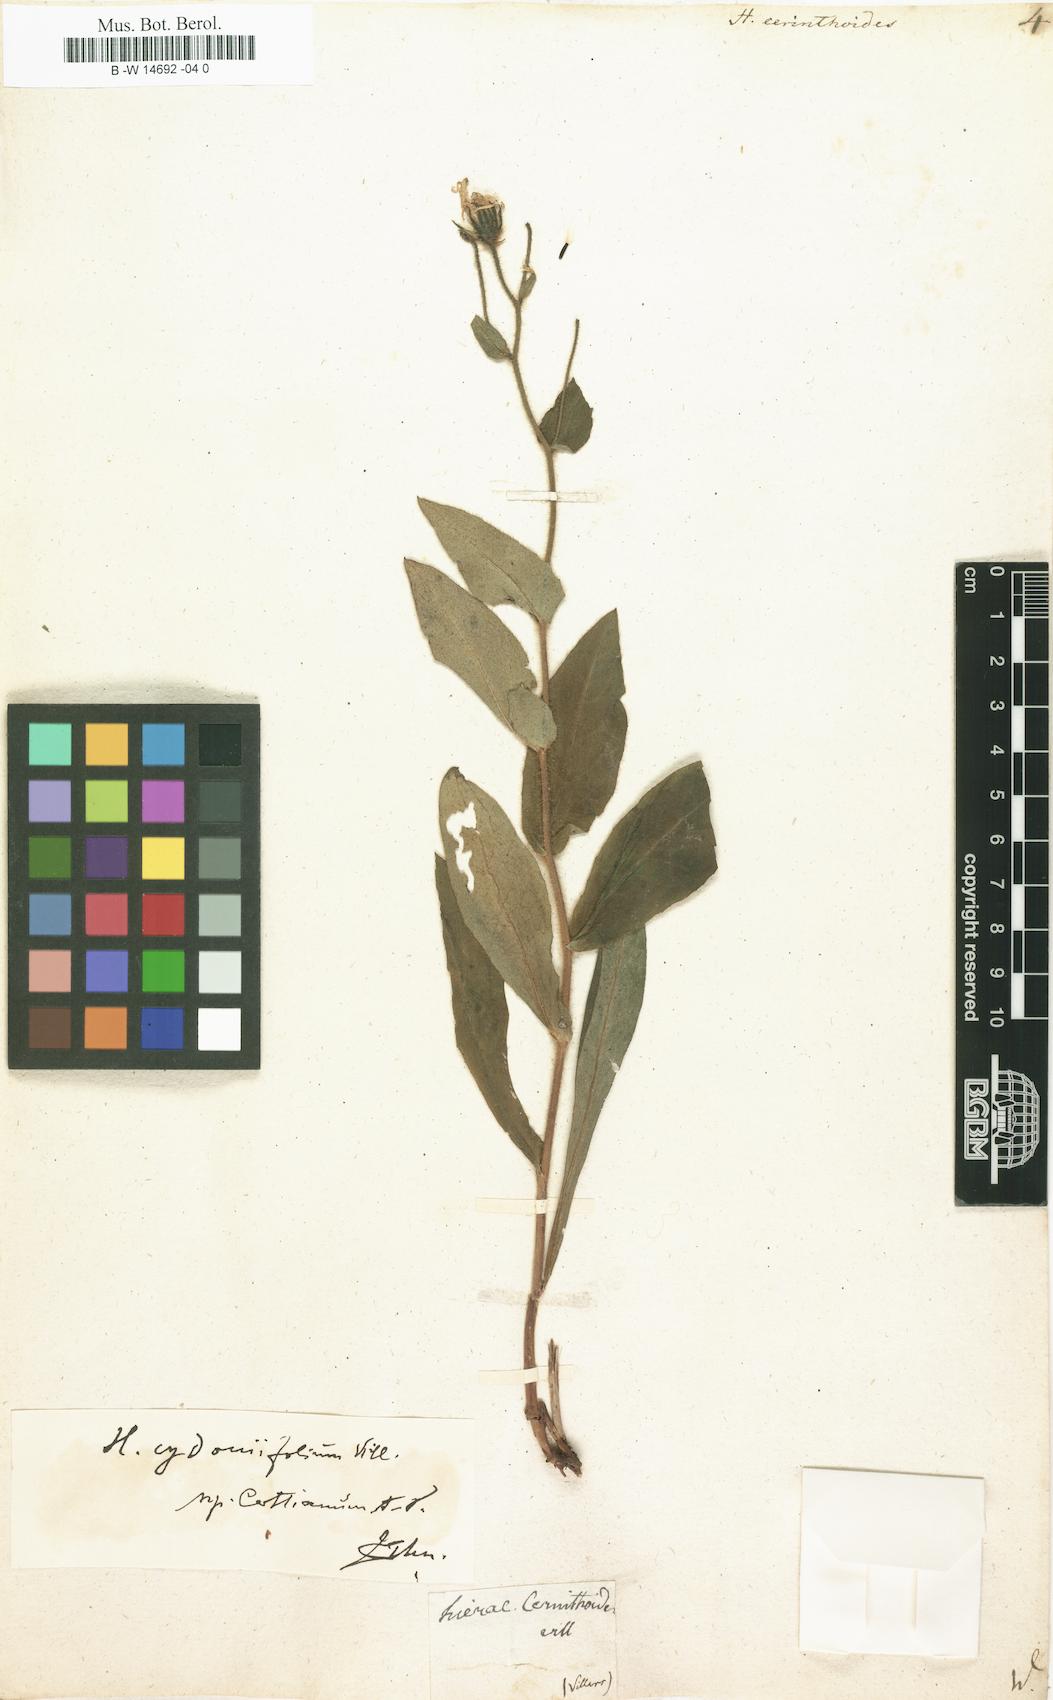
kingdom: Plantae
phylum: Tracheophyta
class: Magnoliopsida
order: Asterales
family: Asteraceae
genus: Hieracium
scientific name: Hieracium cerinthoides
